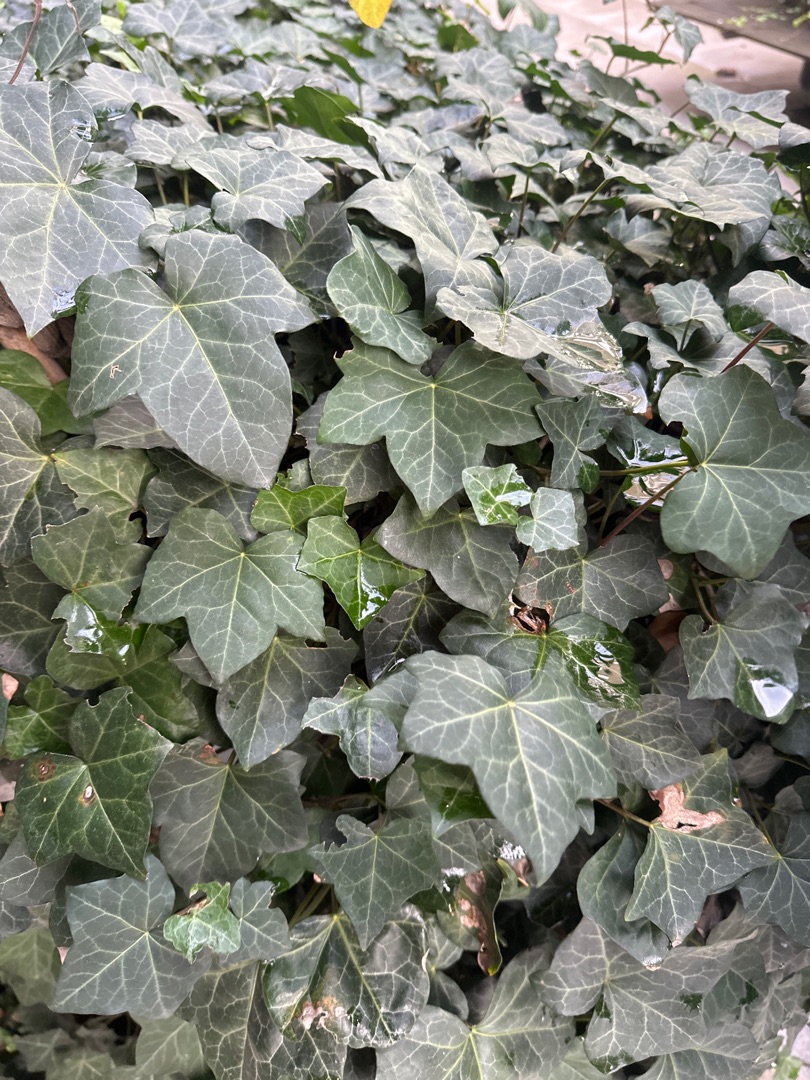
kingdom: Plantae
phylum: Tracheophyta
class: Magnoliopsida
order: Apiales
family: Araliaceae
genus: Hedera
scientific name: Hedera hibernica
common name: Irsk vedbend
